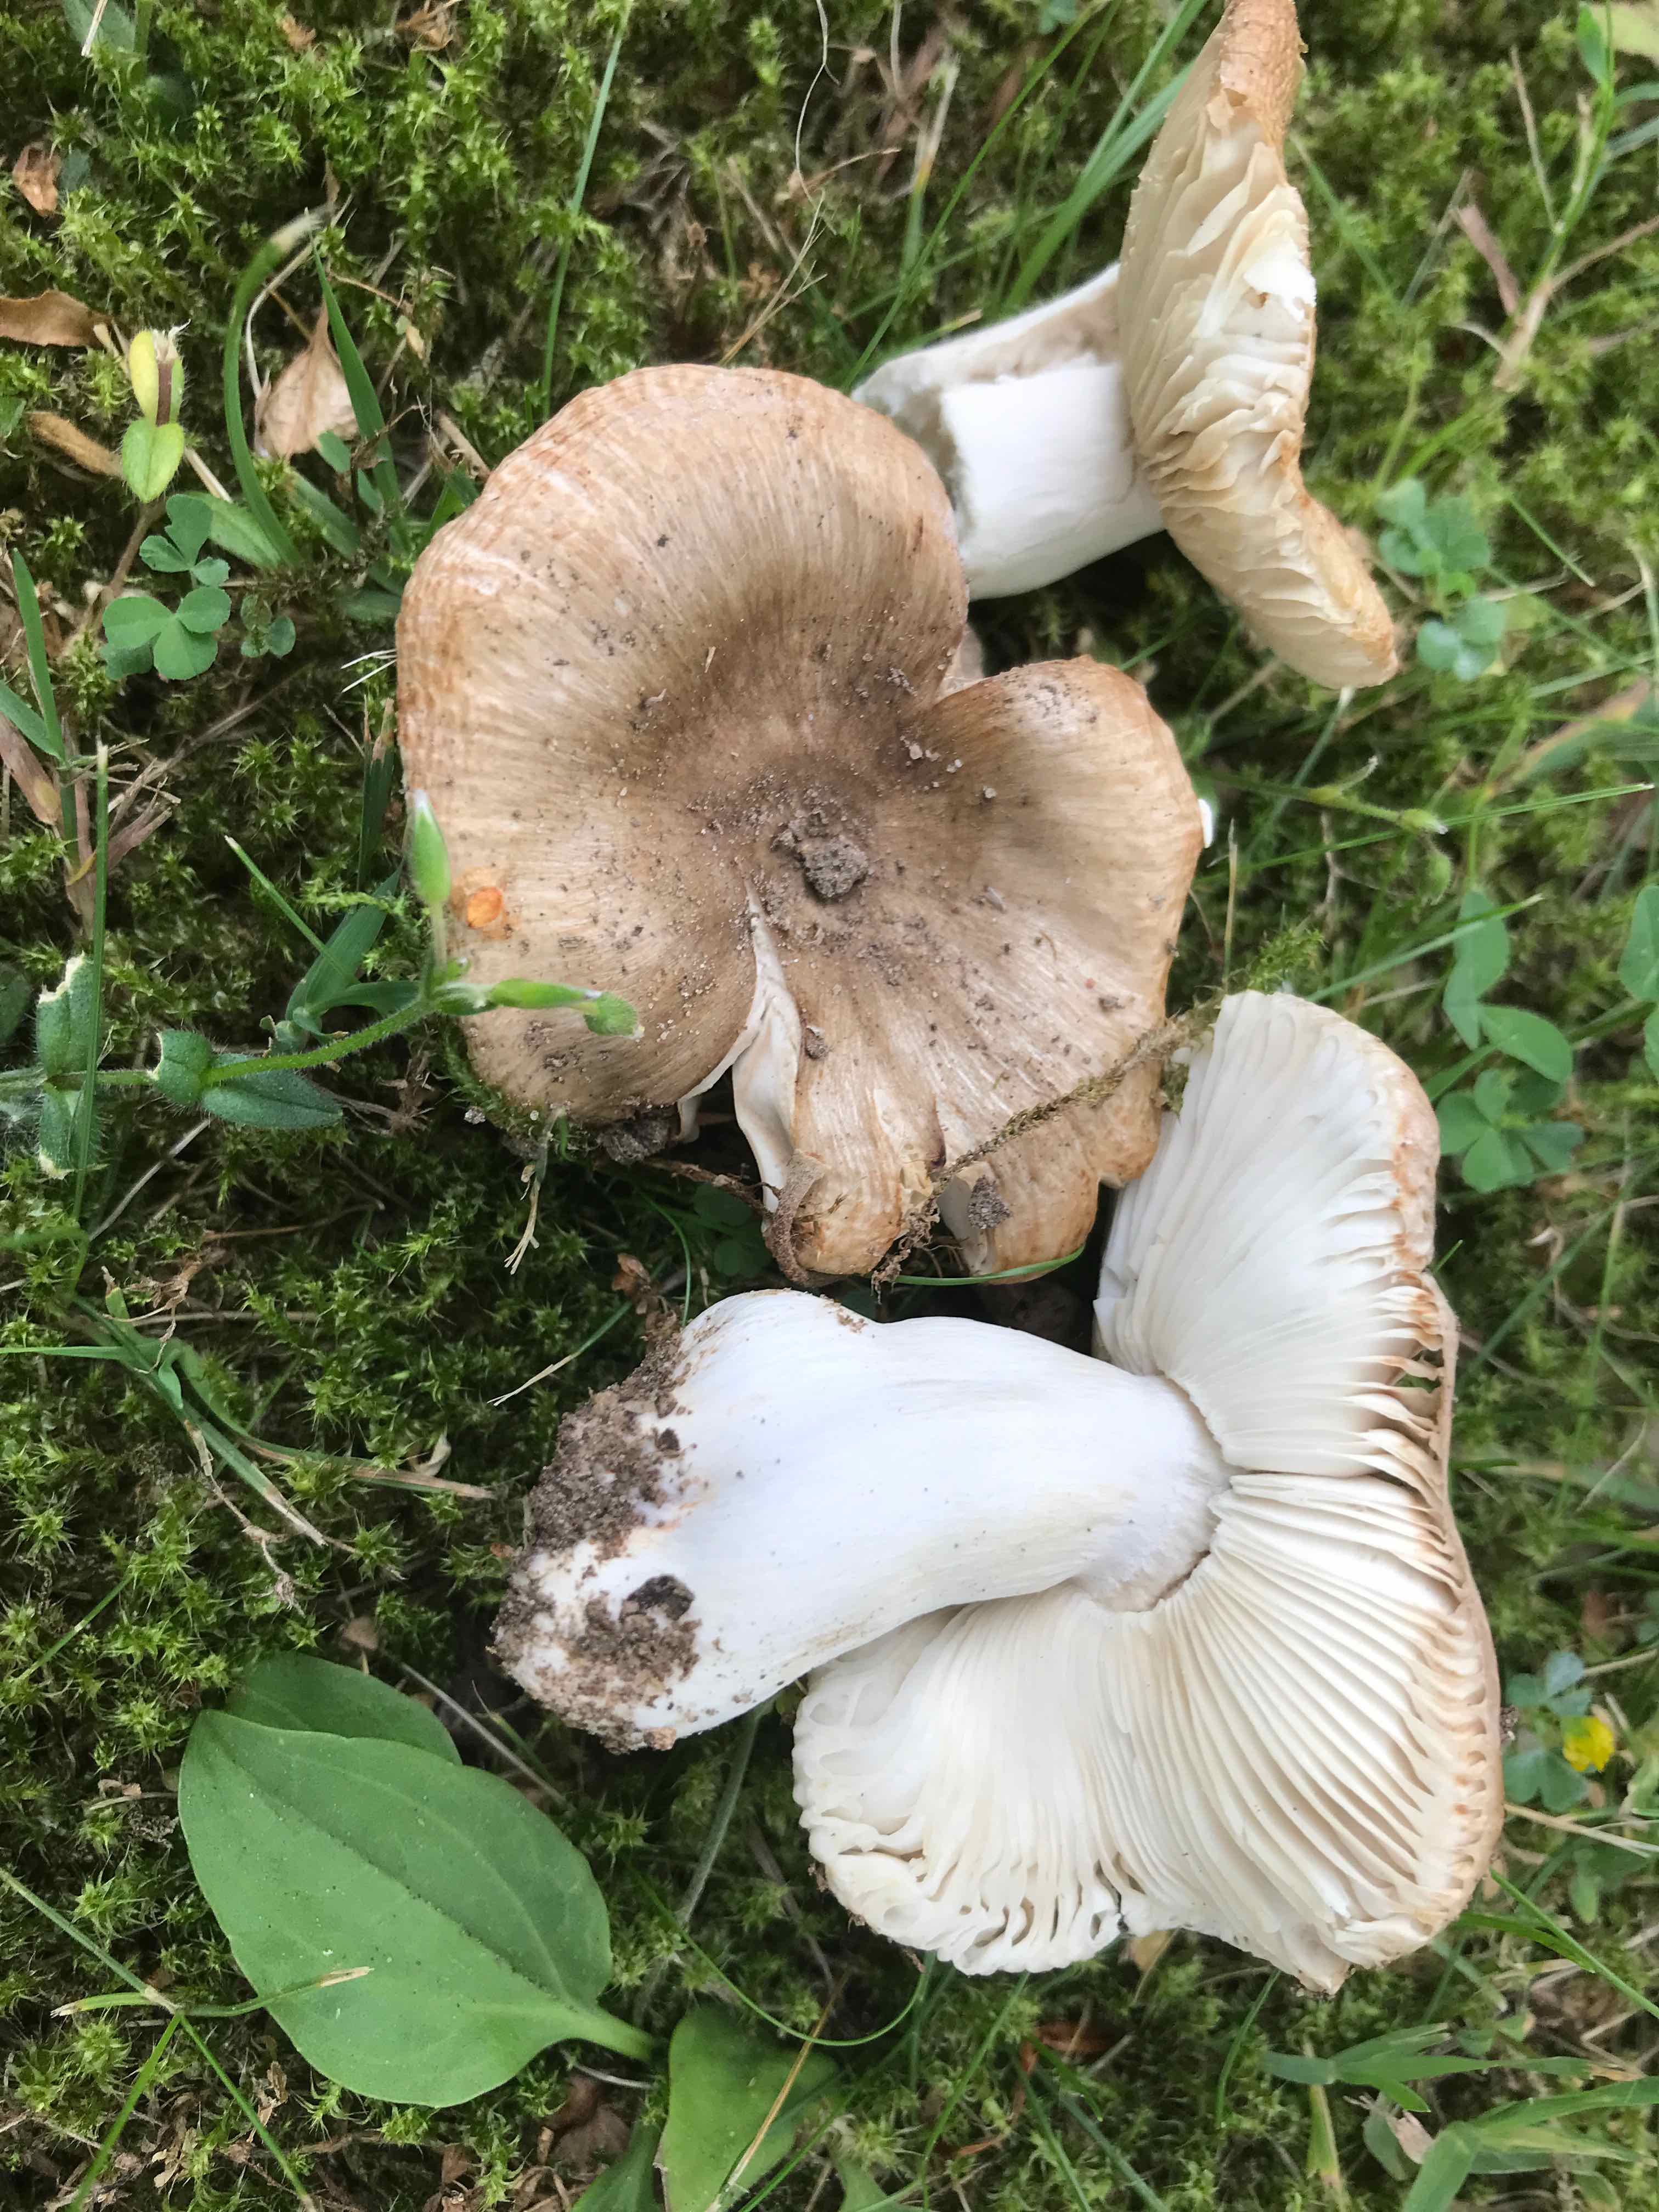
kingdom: Fungi
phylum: Basidiomycota
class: Agaricomycetes
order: Russulales
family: Russulaceae
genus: Russula
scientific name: Russula recondita
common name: mild kam-skørhat
